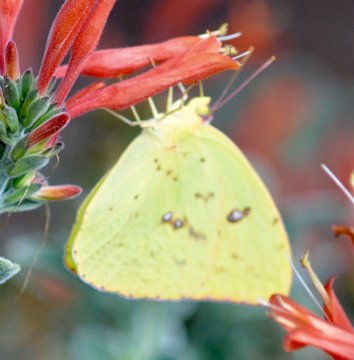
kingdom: Animalia
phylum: Arthropoda
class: Insecta
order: Lepidoptera
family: Pieridae
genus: Phoebis
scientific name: Phoebis sennae
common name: Cloudless Sulphur
